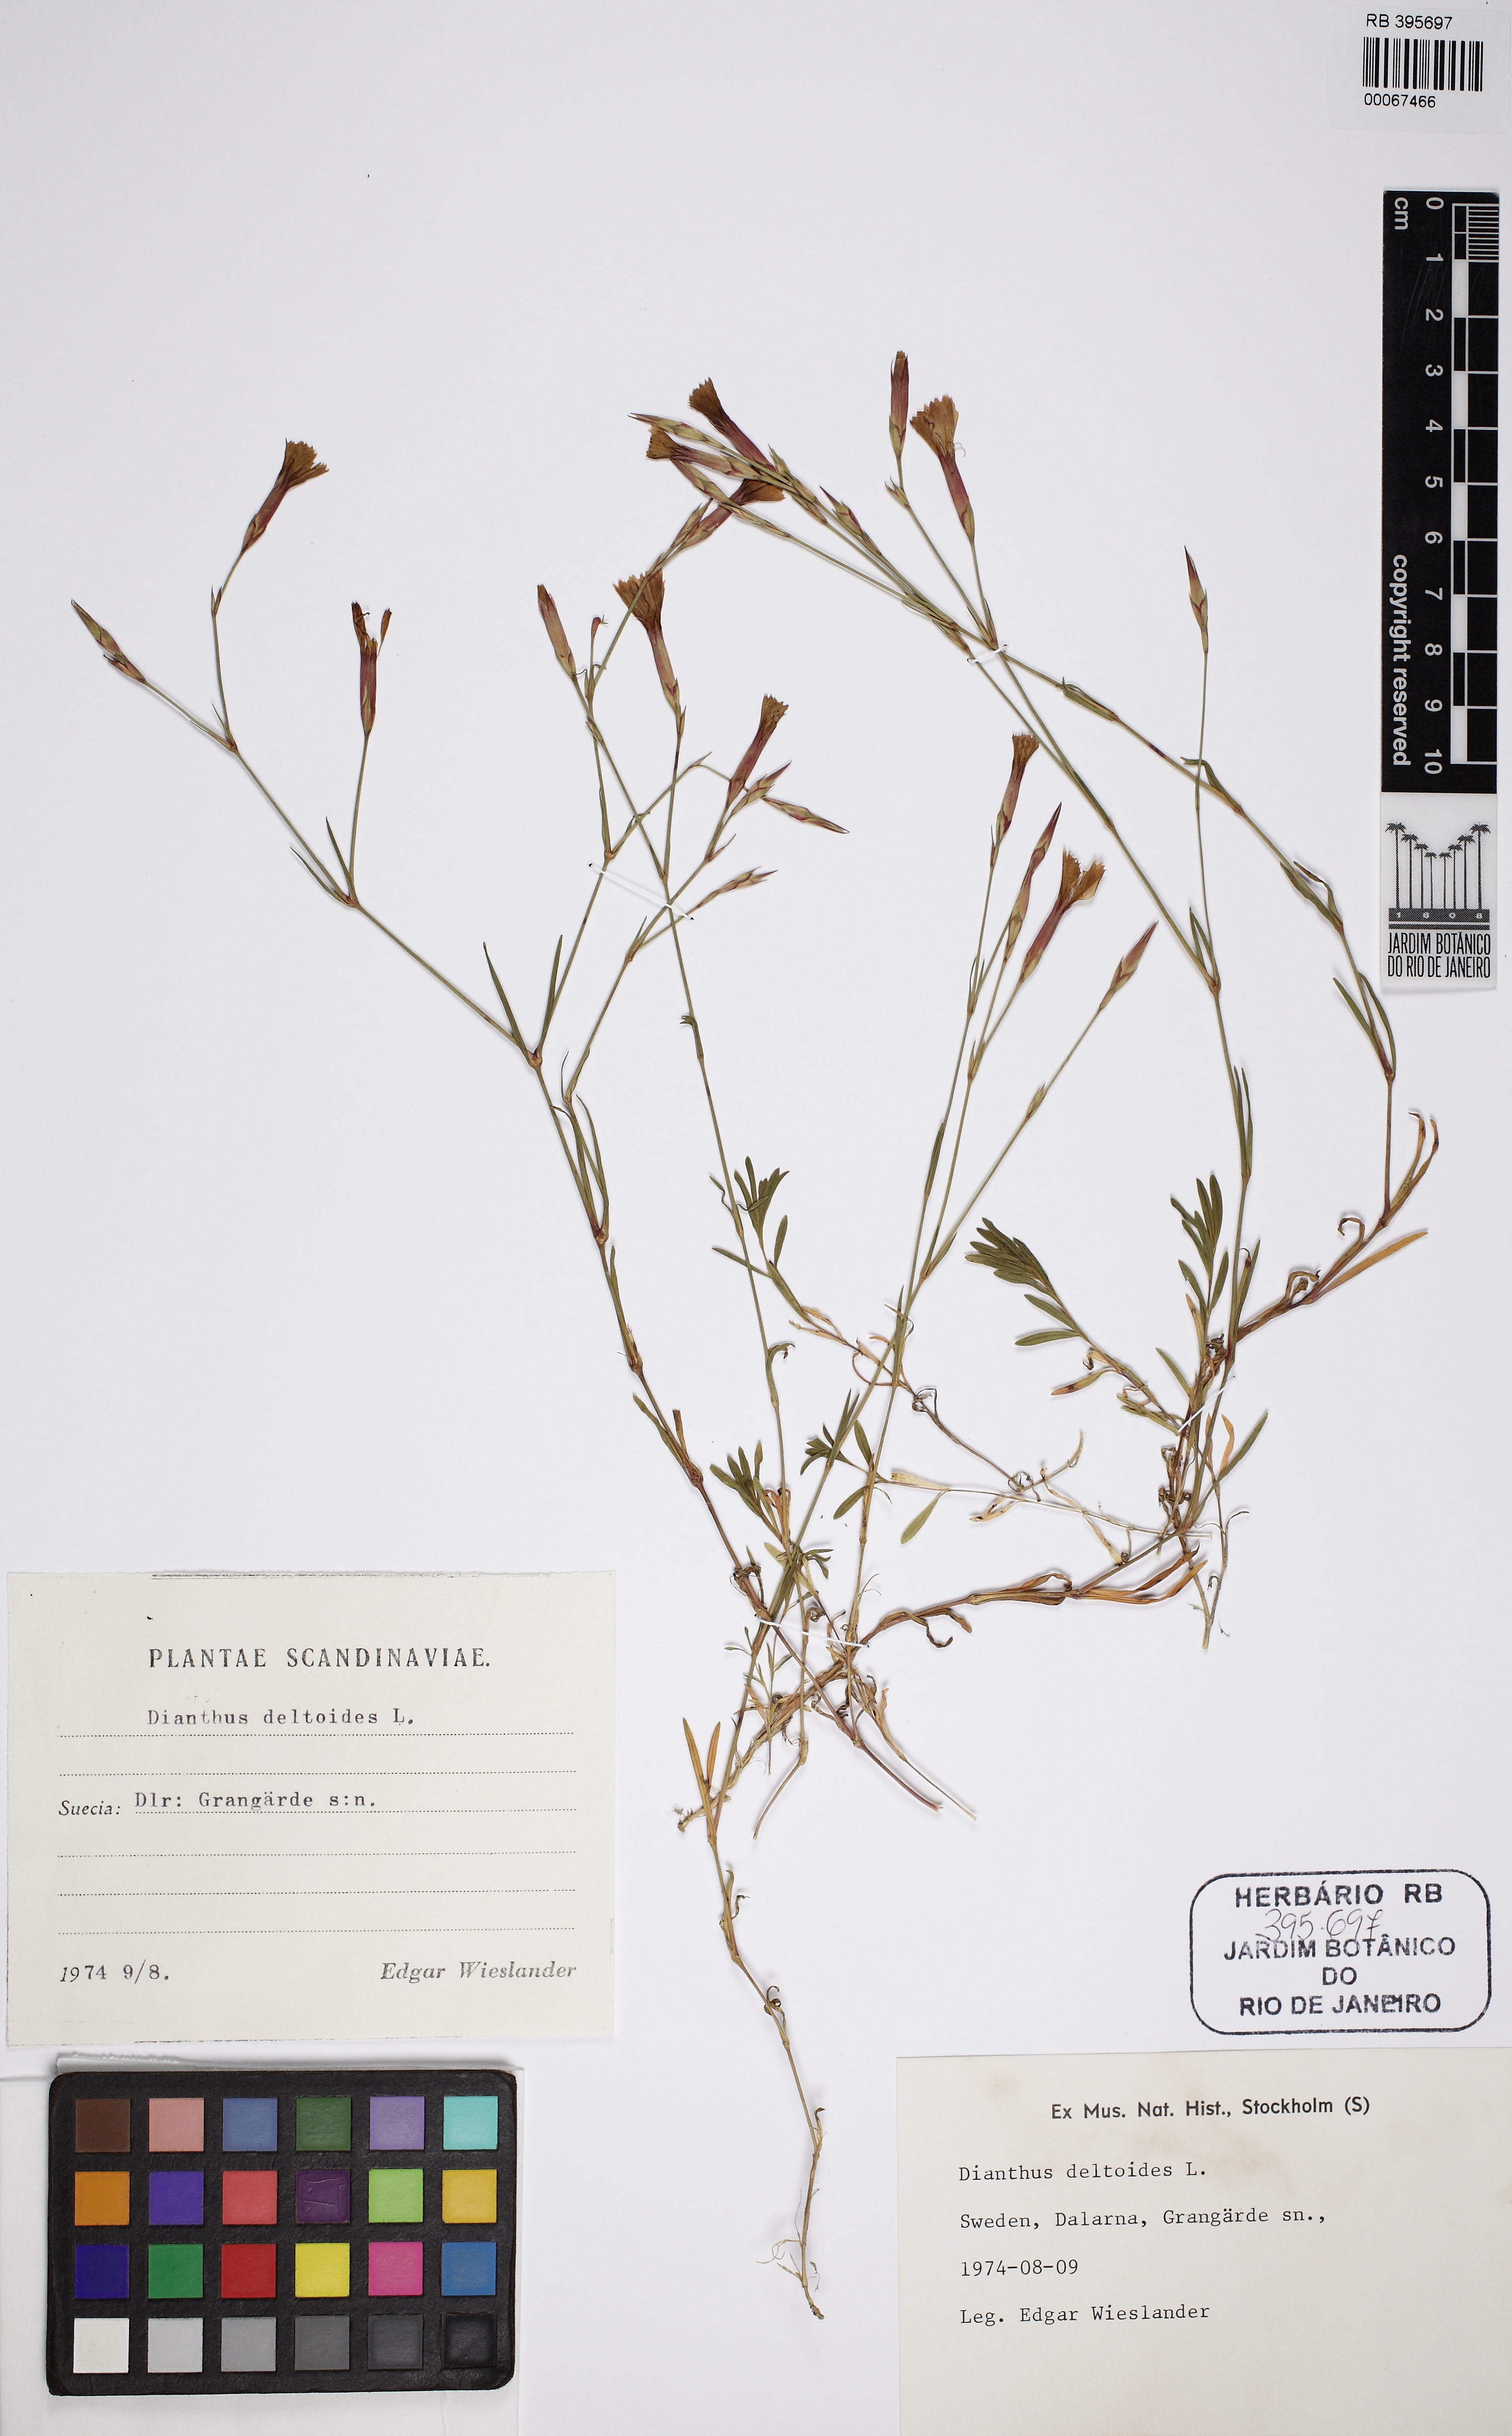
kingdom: Plantae
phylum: Tracheophyta
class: Magnoliopsida
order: Caryophyllales
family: Caryophyllaceae
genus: Dianthus
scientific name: Dianthus deltoides
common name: Maiden pink
